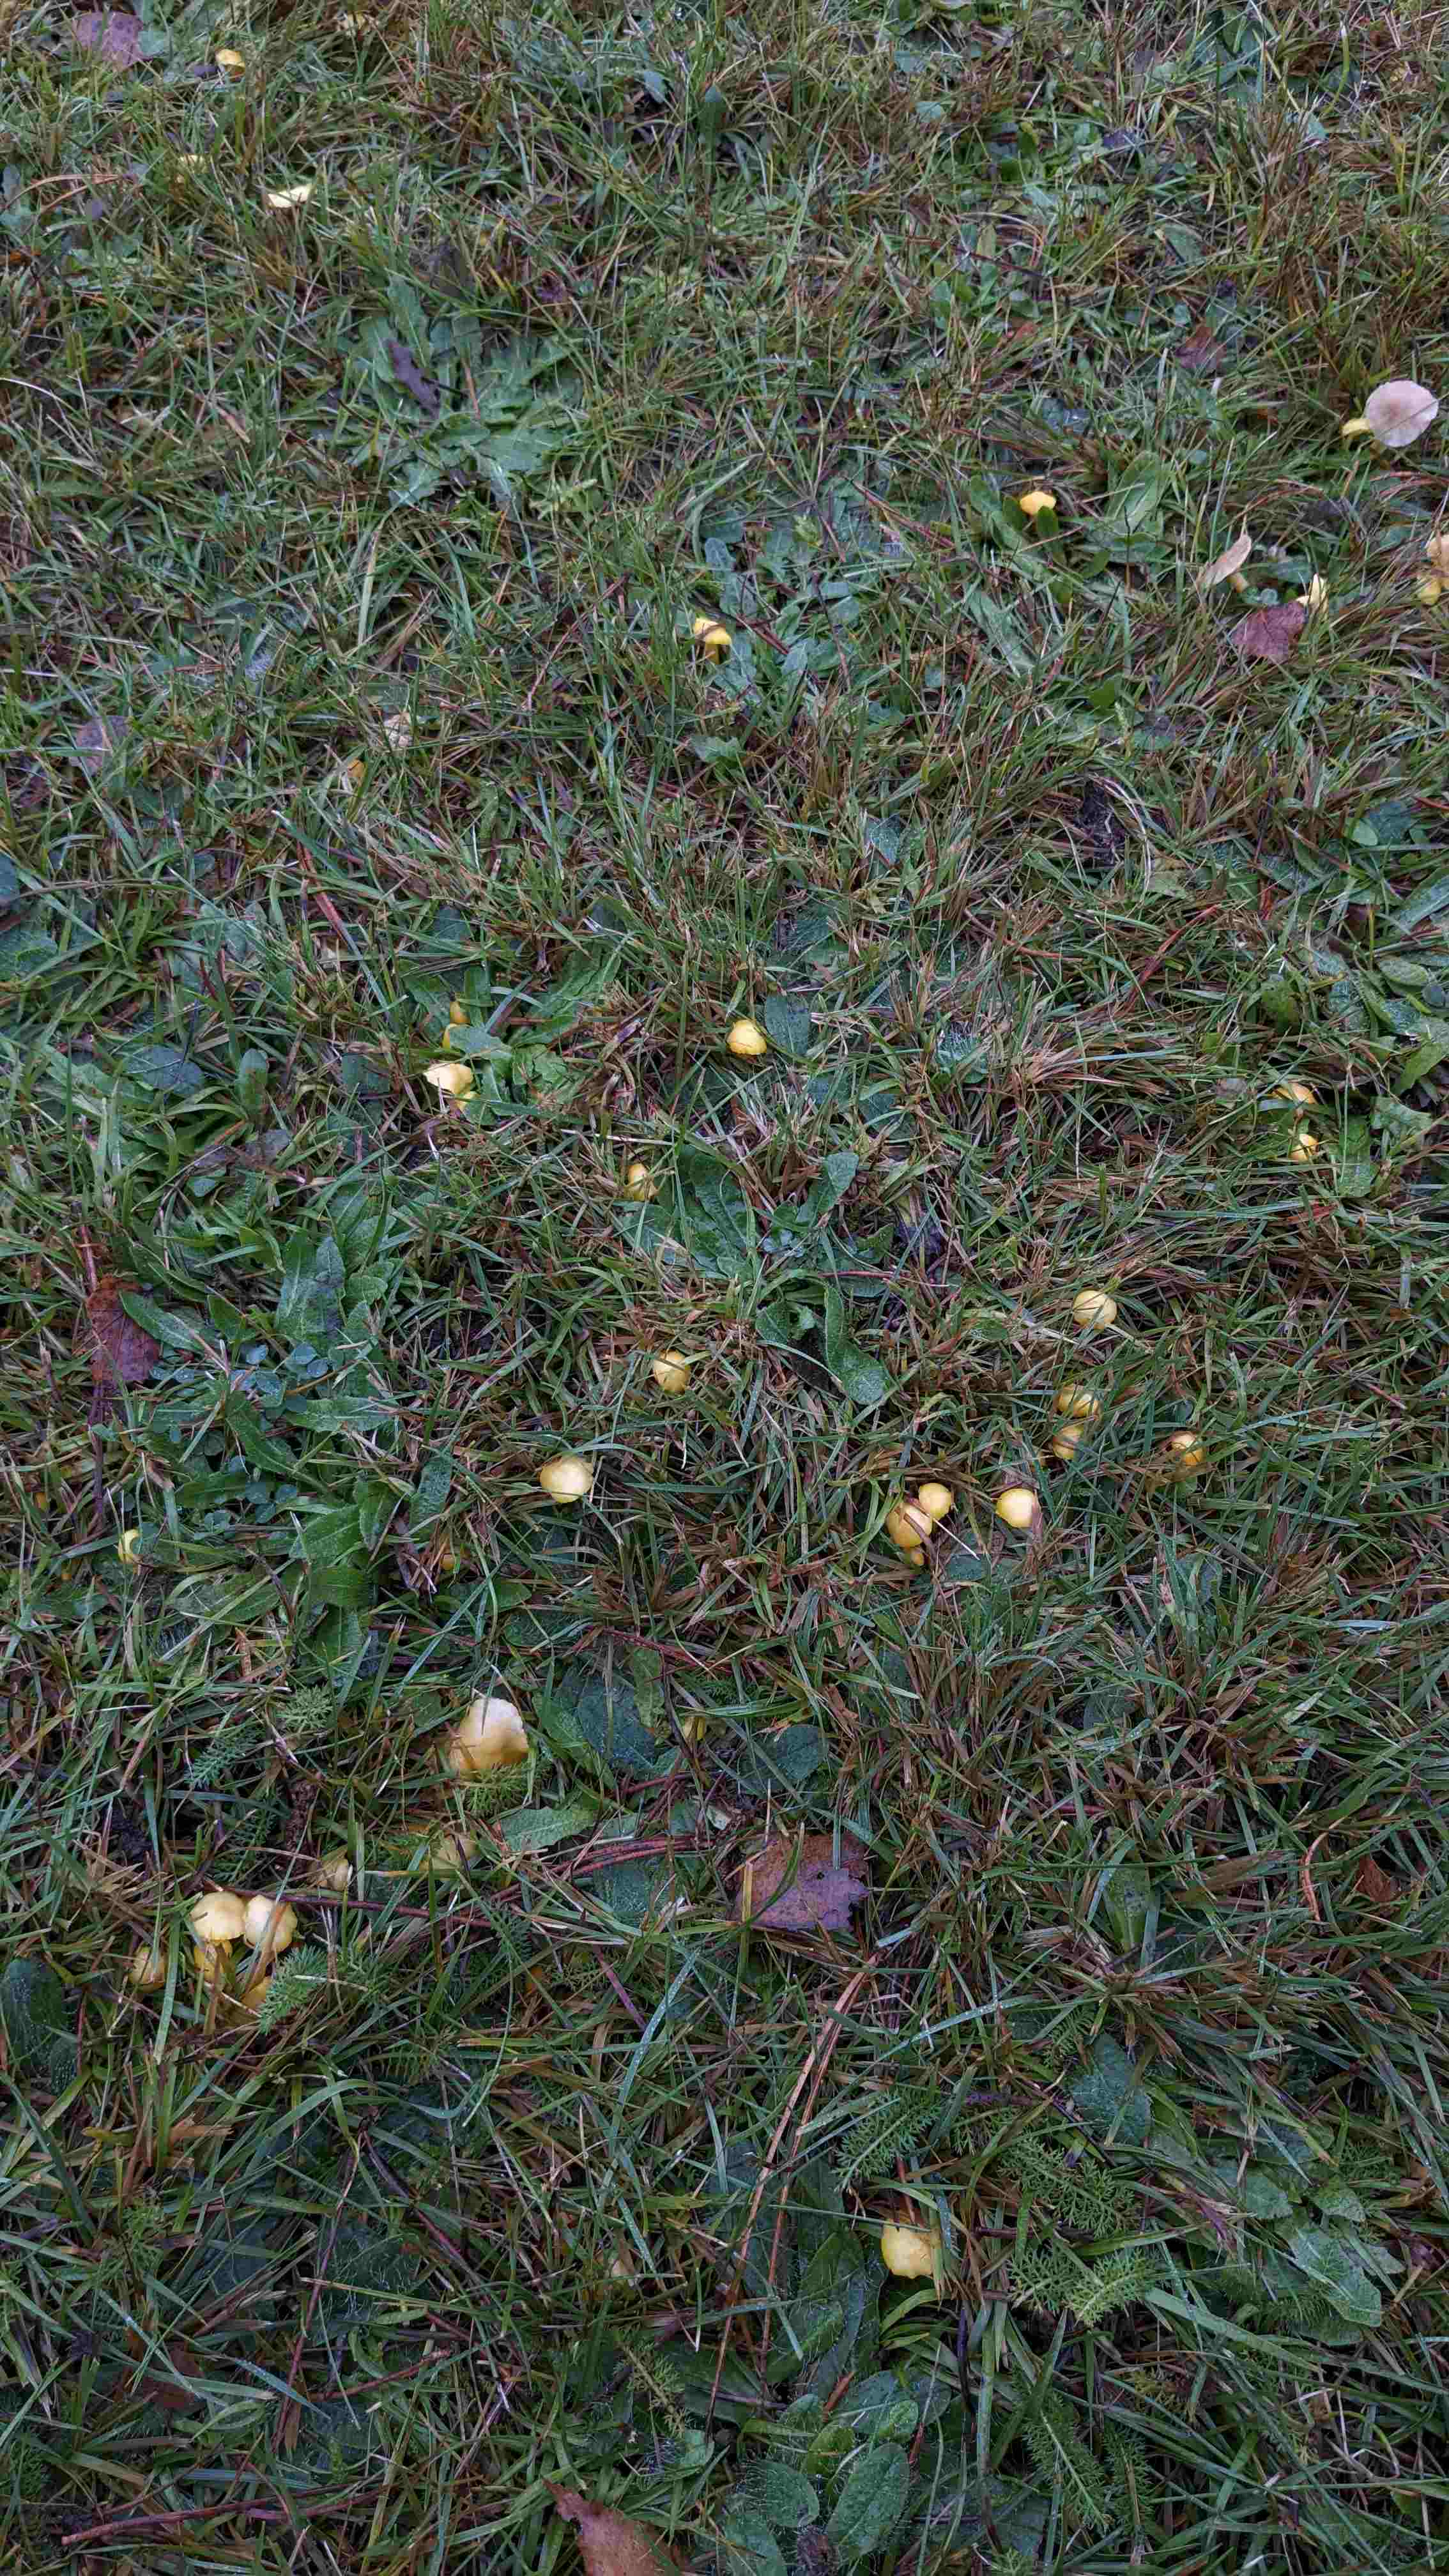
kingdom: Fungi
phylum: Basidiomycota
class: Agaricomycetes
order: Agaricales
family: Hygrophoraceae
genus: Hygrocybe
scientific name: Hygrocybe ceracea
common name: voksgul vokshat
